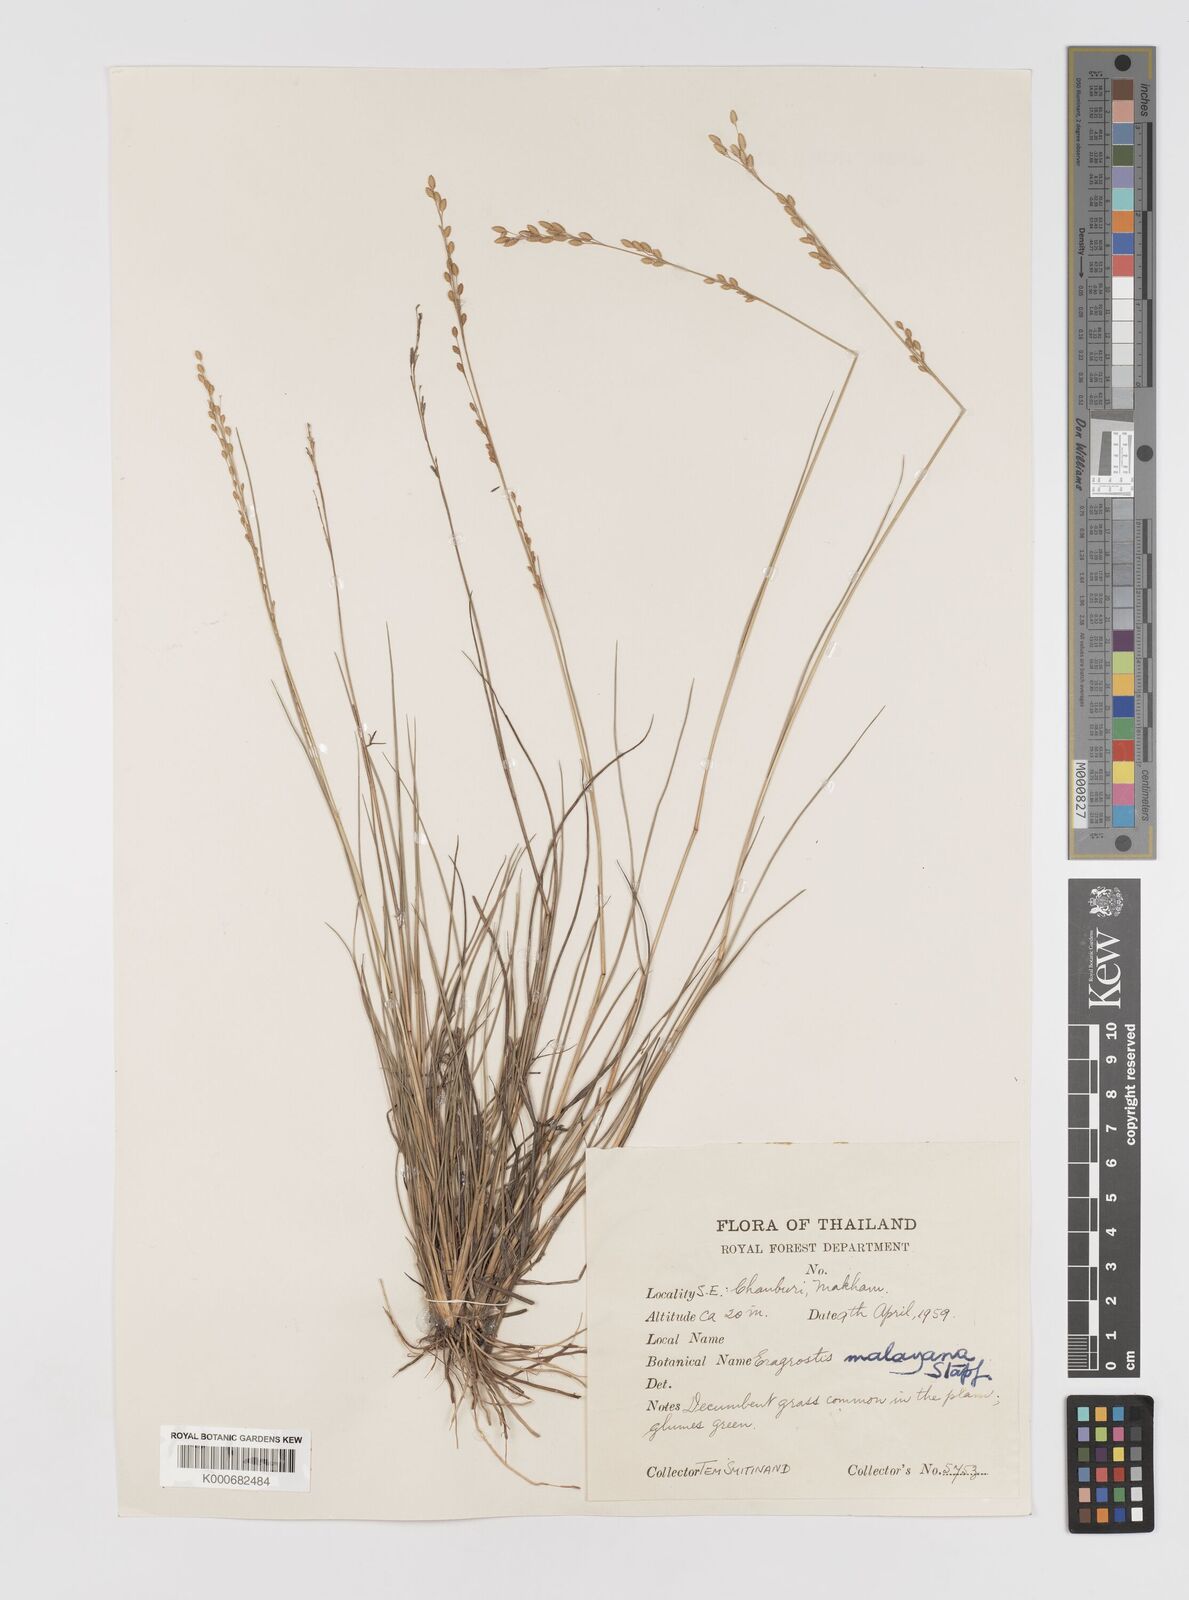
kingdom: Plantae
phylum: Tracheophyta
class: Liliopsida
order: Poales
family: Poaceae
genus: Eragrostis
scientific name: Eragrostis montana
